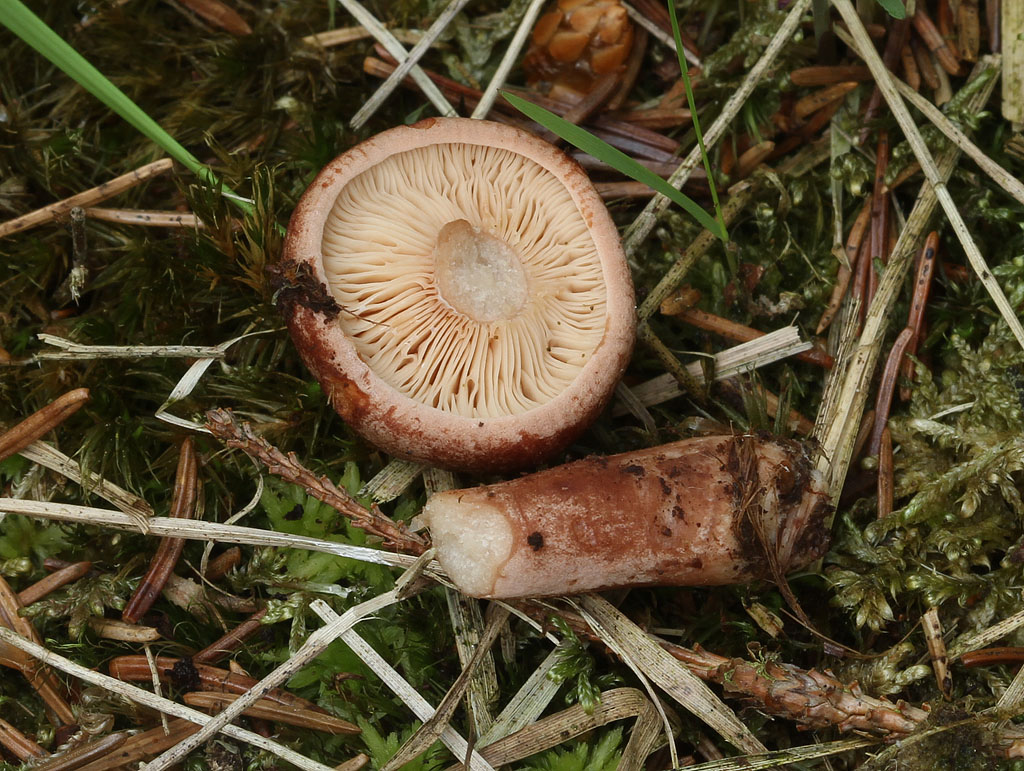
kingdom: Fungi
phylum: Basidiomycota
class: Agaricomycetes
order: Russulales
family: Russulaceae
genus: Lactarius
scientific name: Lactarius rufus
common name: rødbrun mælkehat
